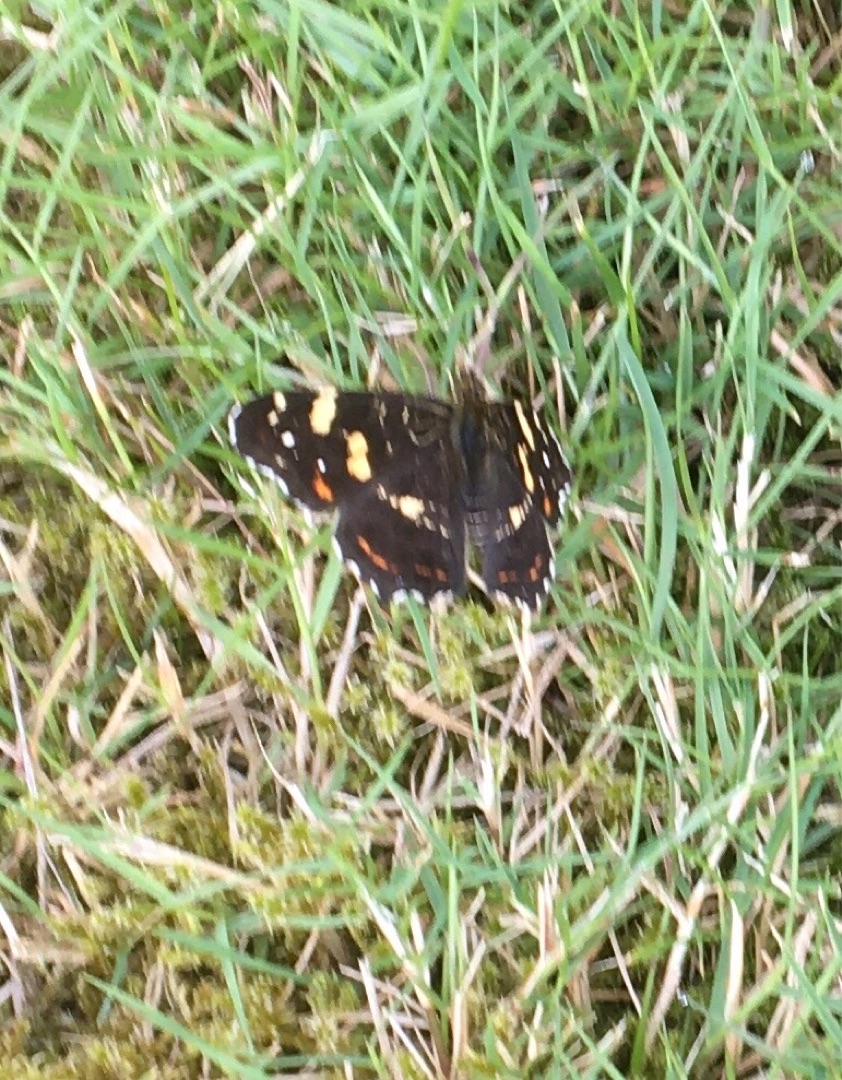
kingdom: Animalia
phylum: Arthropoda
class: Insecta
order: Lepidoptera
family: Nymphalidae
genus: Araschnia
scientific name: Araschnia levana
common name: Nældesommerfugl
